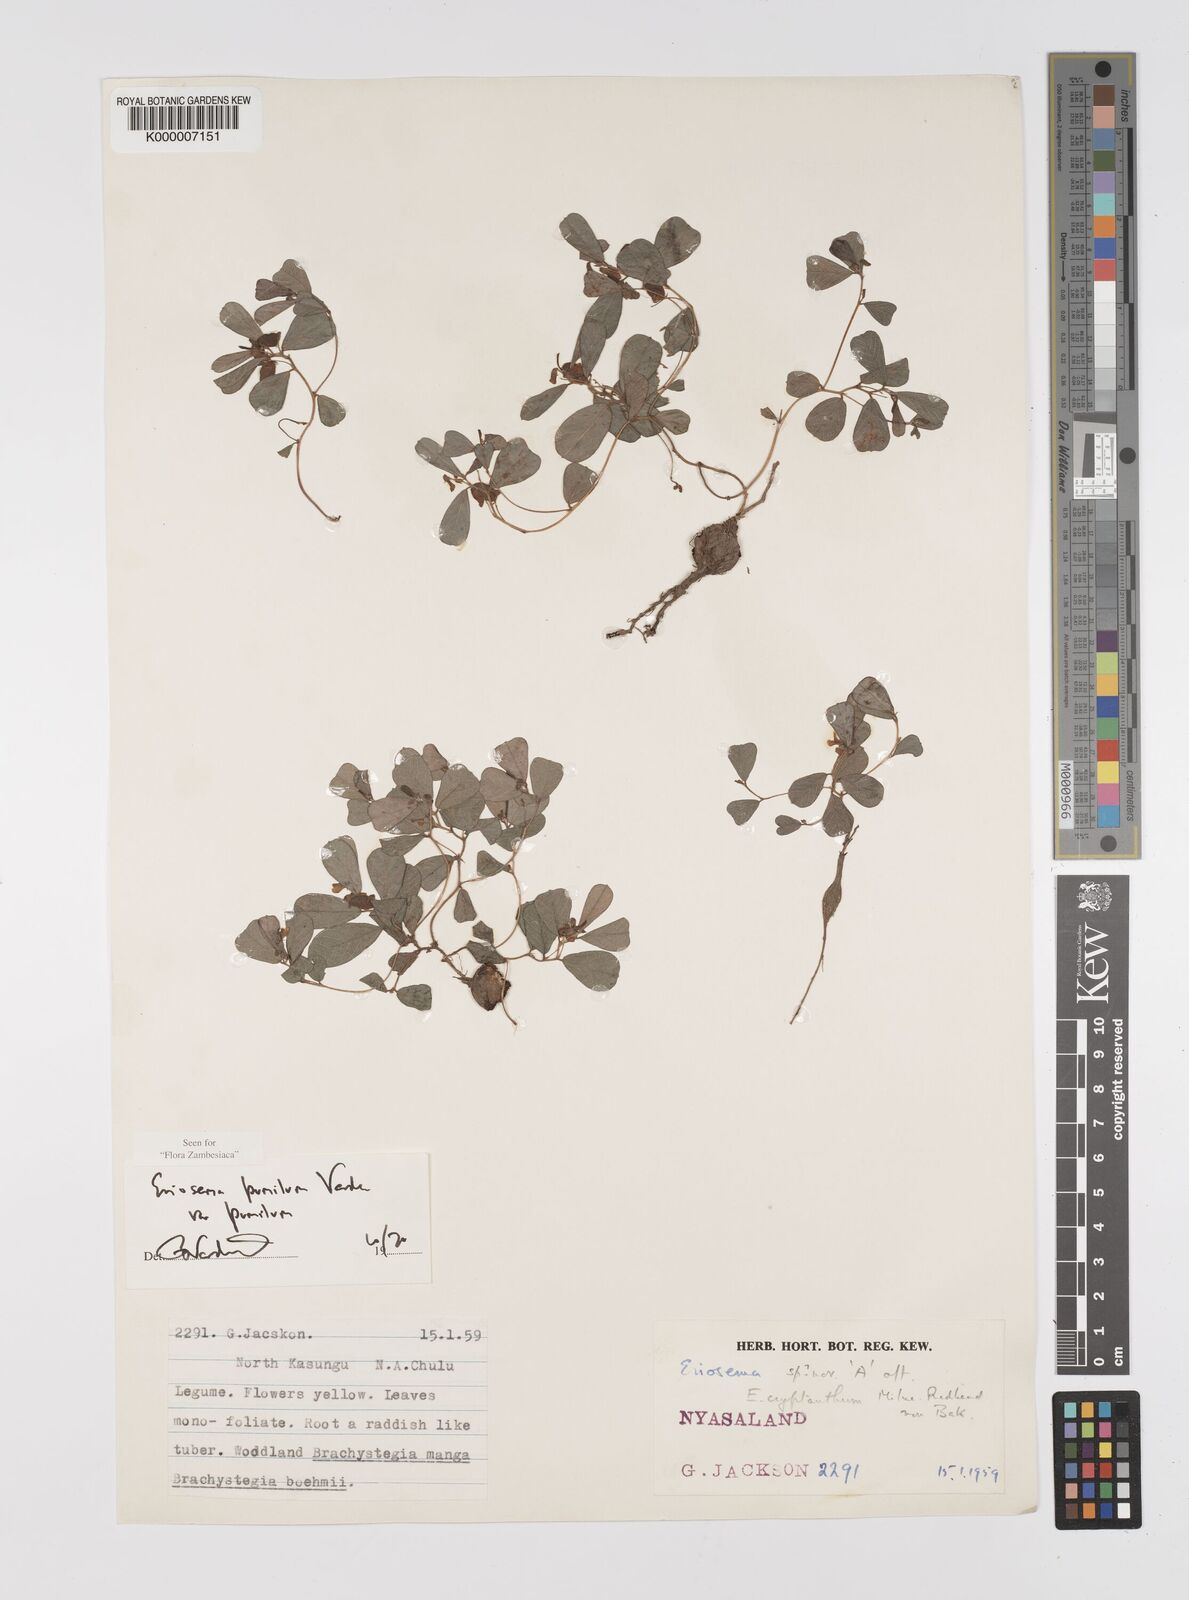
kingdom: Plantae
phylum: Tracheophyta
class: Magnoliopsida
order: Fabales
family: Fabaceae
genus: Eriosema
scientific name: Eriosema pumilum
